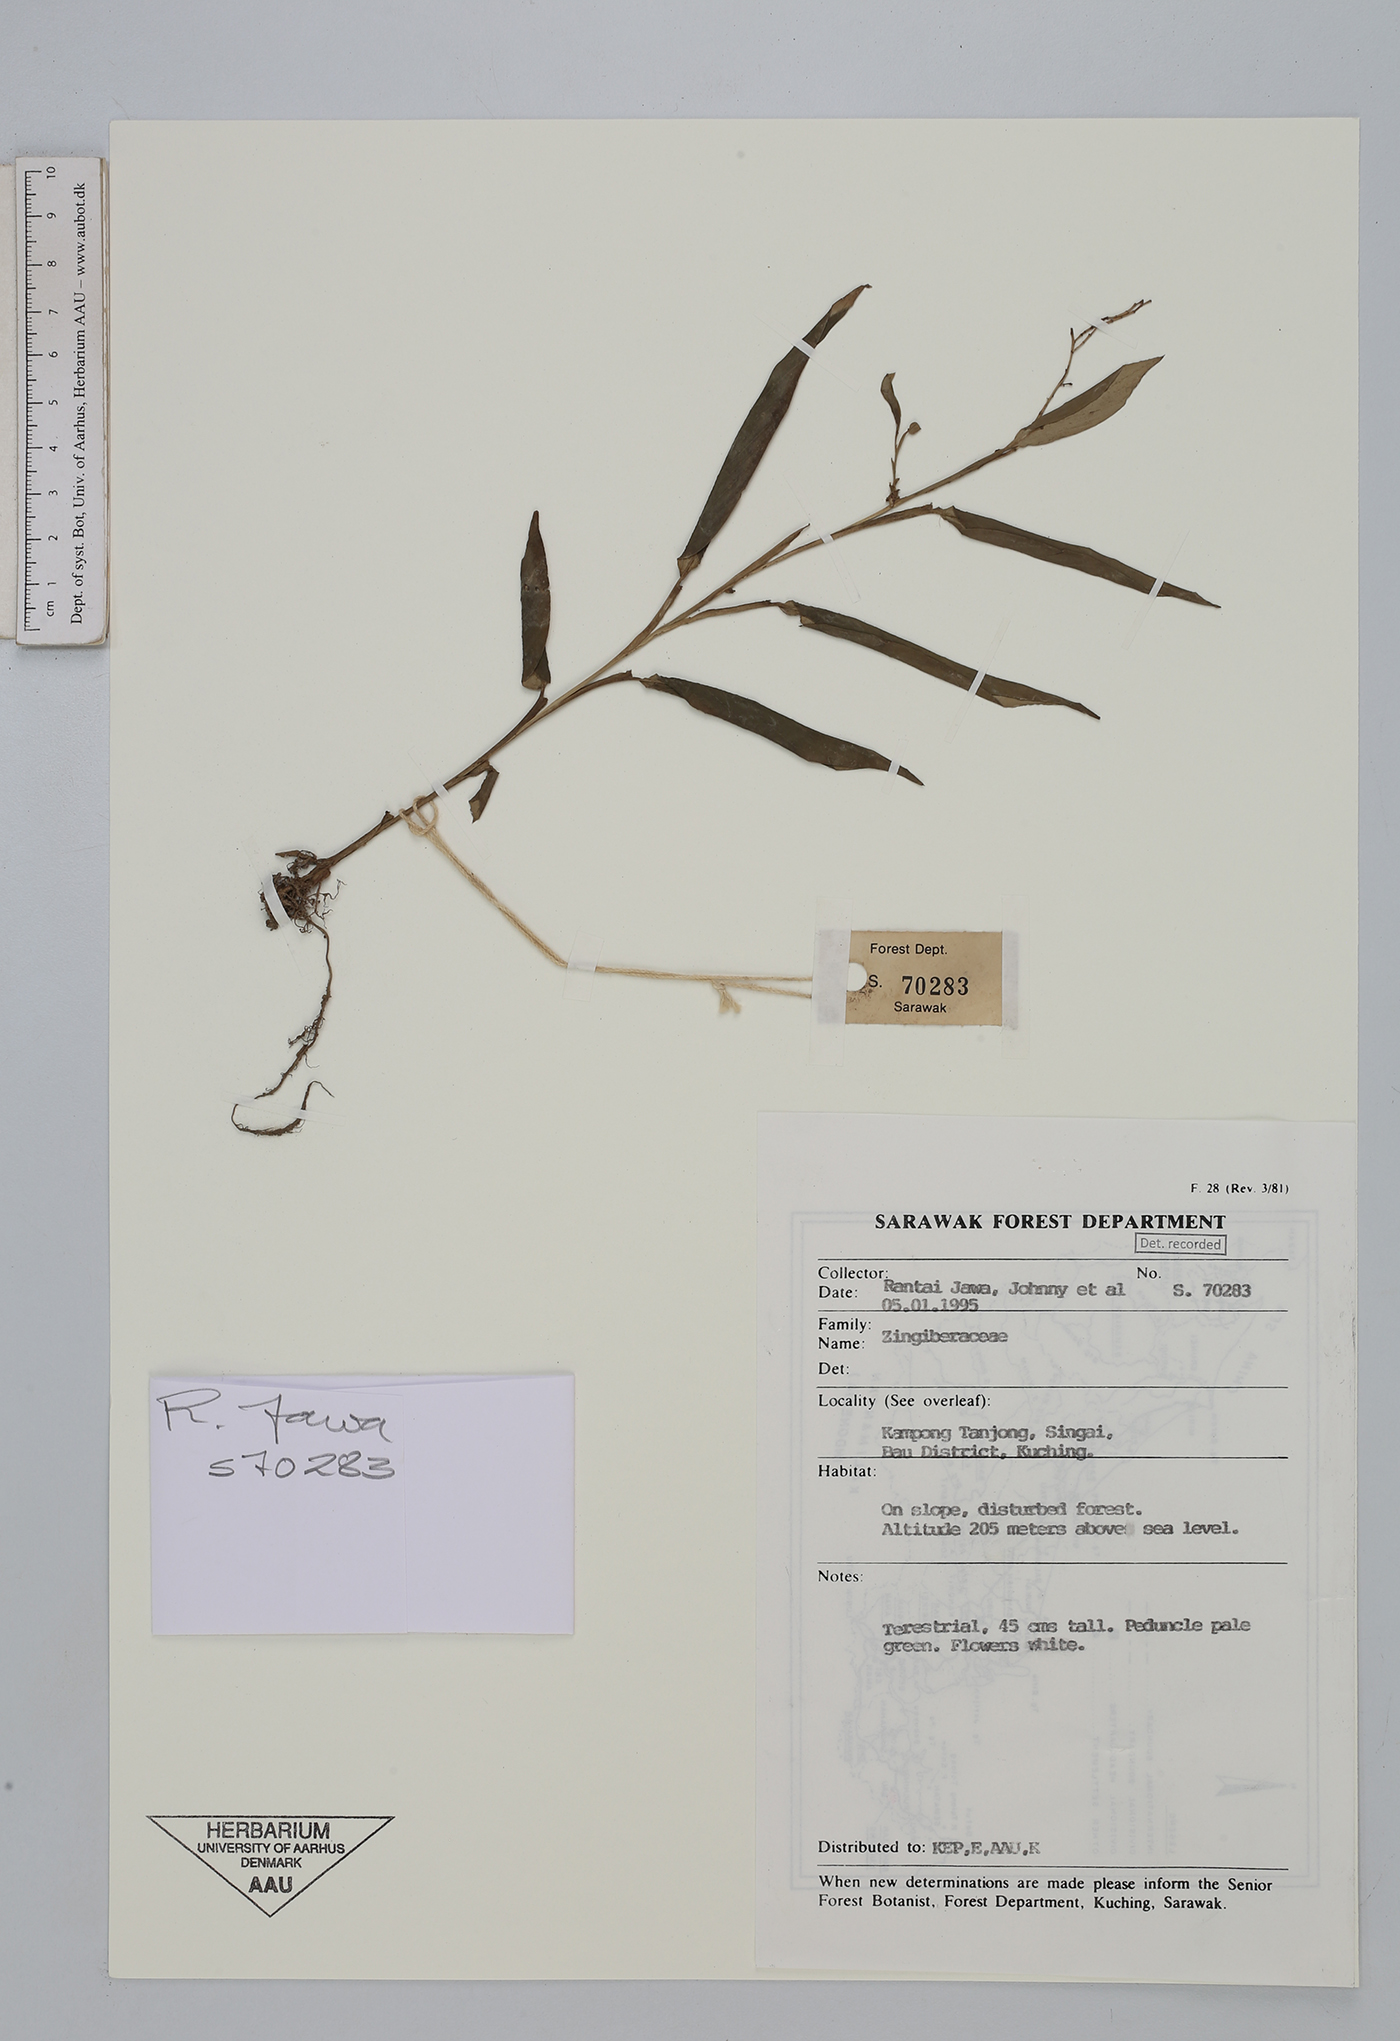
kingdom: Plantae
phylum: Tracheophyta
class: Liliopsida
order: Zingiberales
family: Zingiberaceae
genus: Globba
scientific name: Globba
